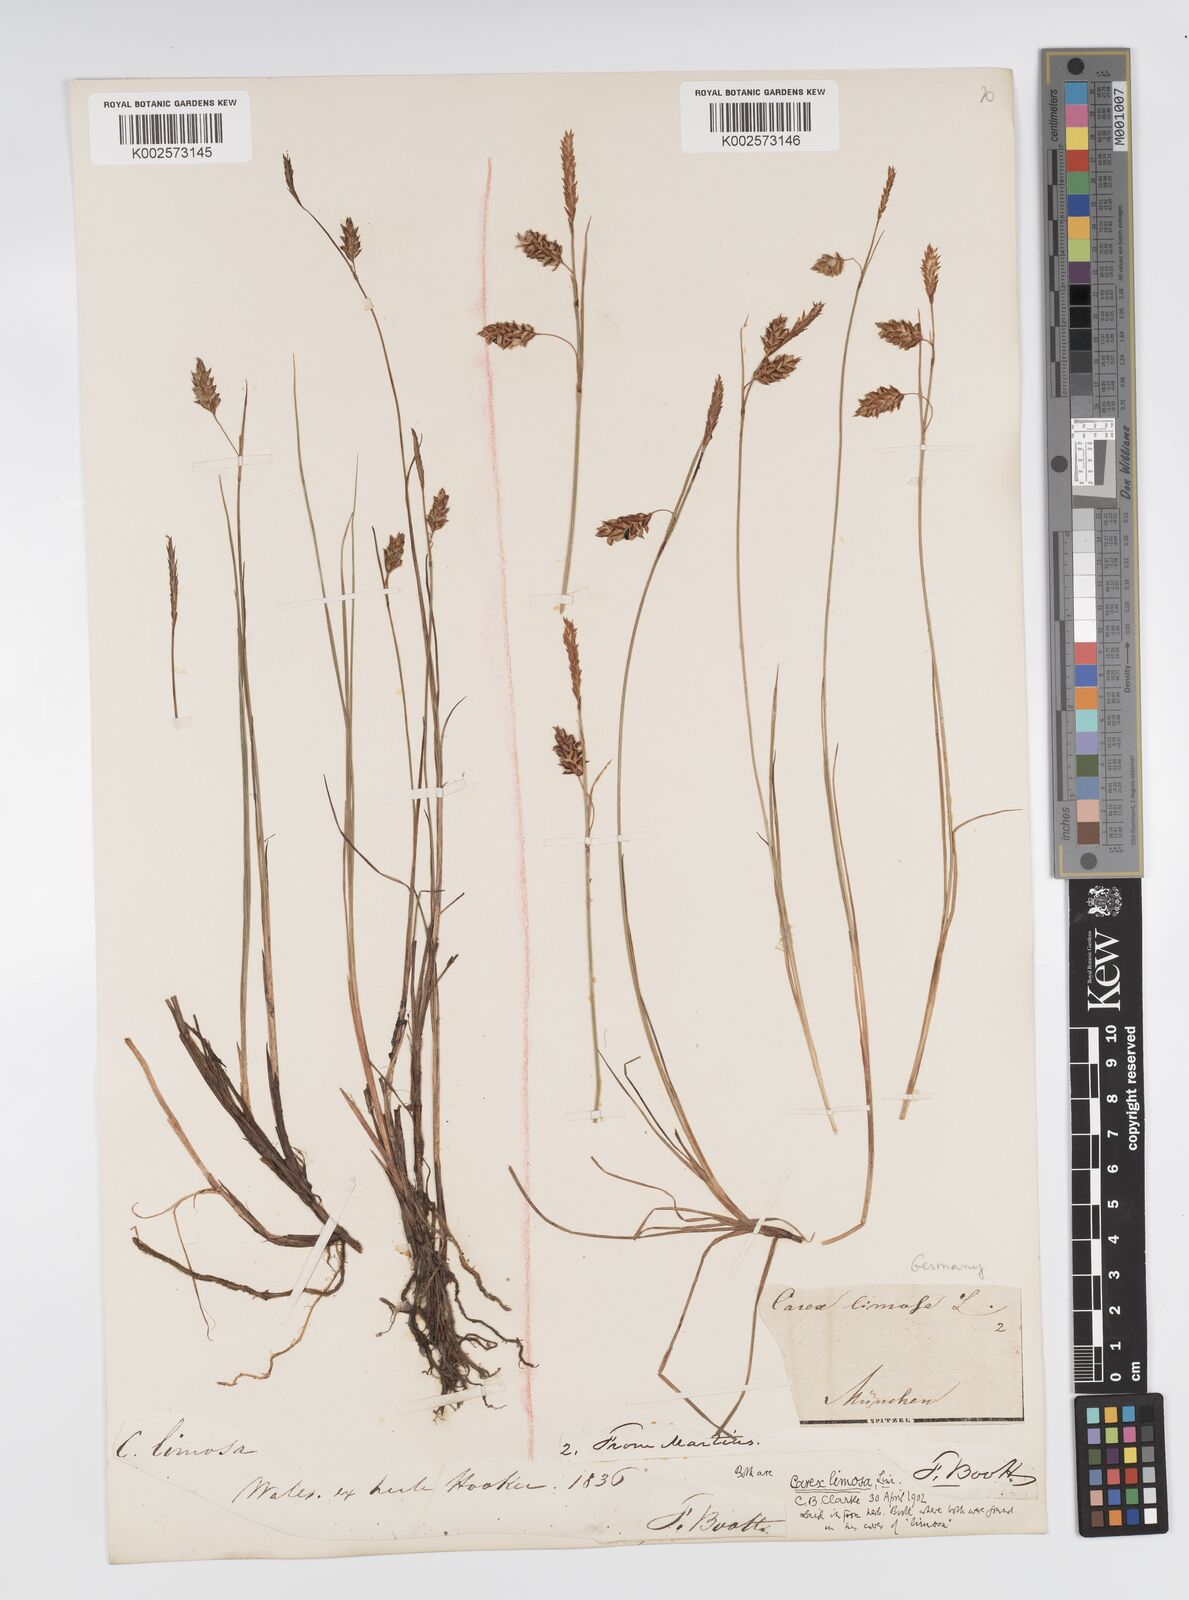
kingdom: Plantae
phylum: Tracheophyta
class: Liliopsida
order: Poales
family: Cyperaceae
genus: Carex
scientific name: Carex limosa
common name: Bog sedge
